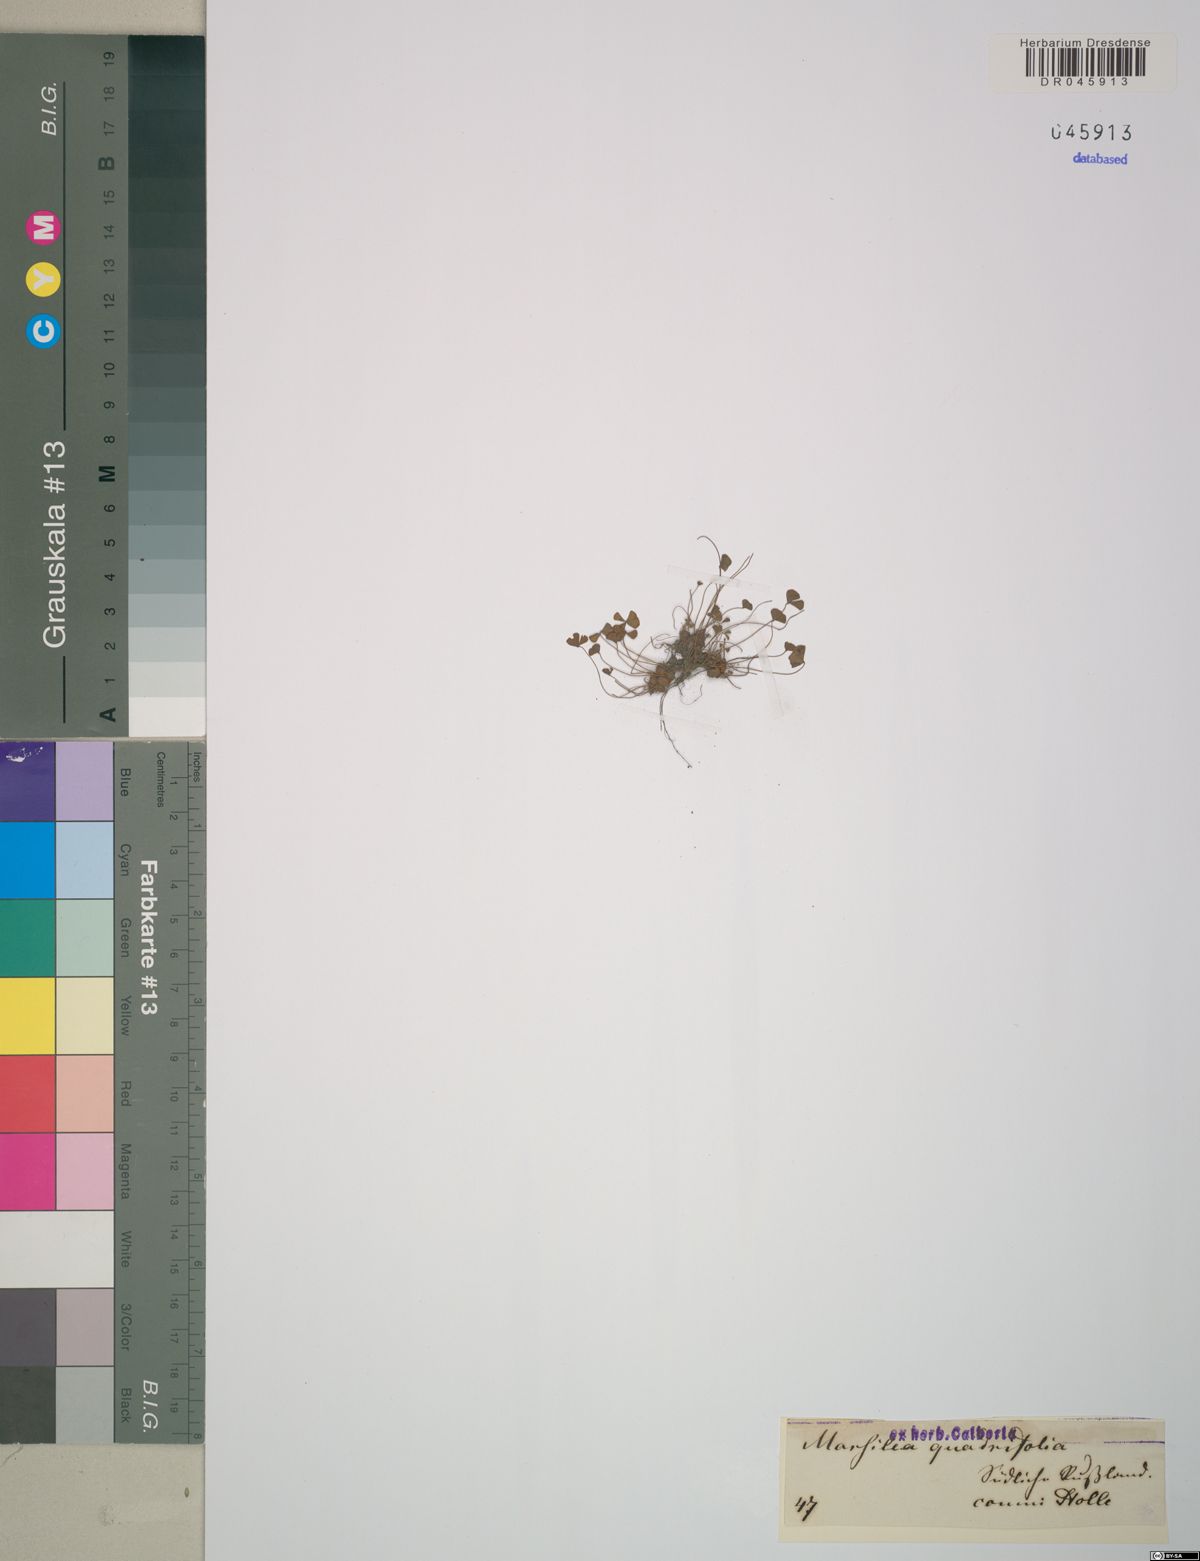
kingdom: Plantae
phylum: Tracheophyta
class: Polypodiopsida
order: Salviniales
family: Marsileaceae
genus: Marsilea
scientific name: Marsilea quadrifolia
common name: Water shamrock
